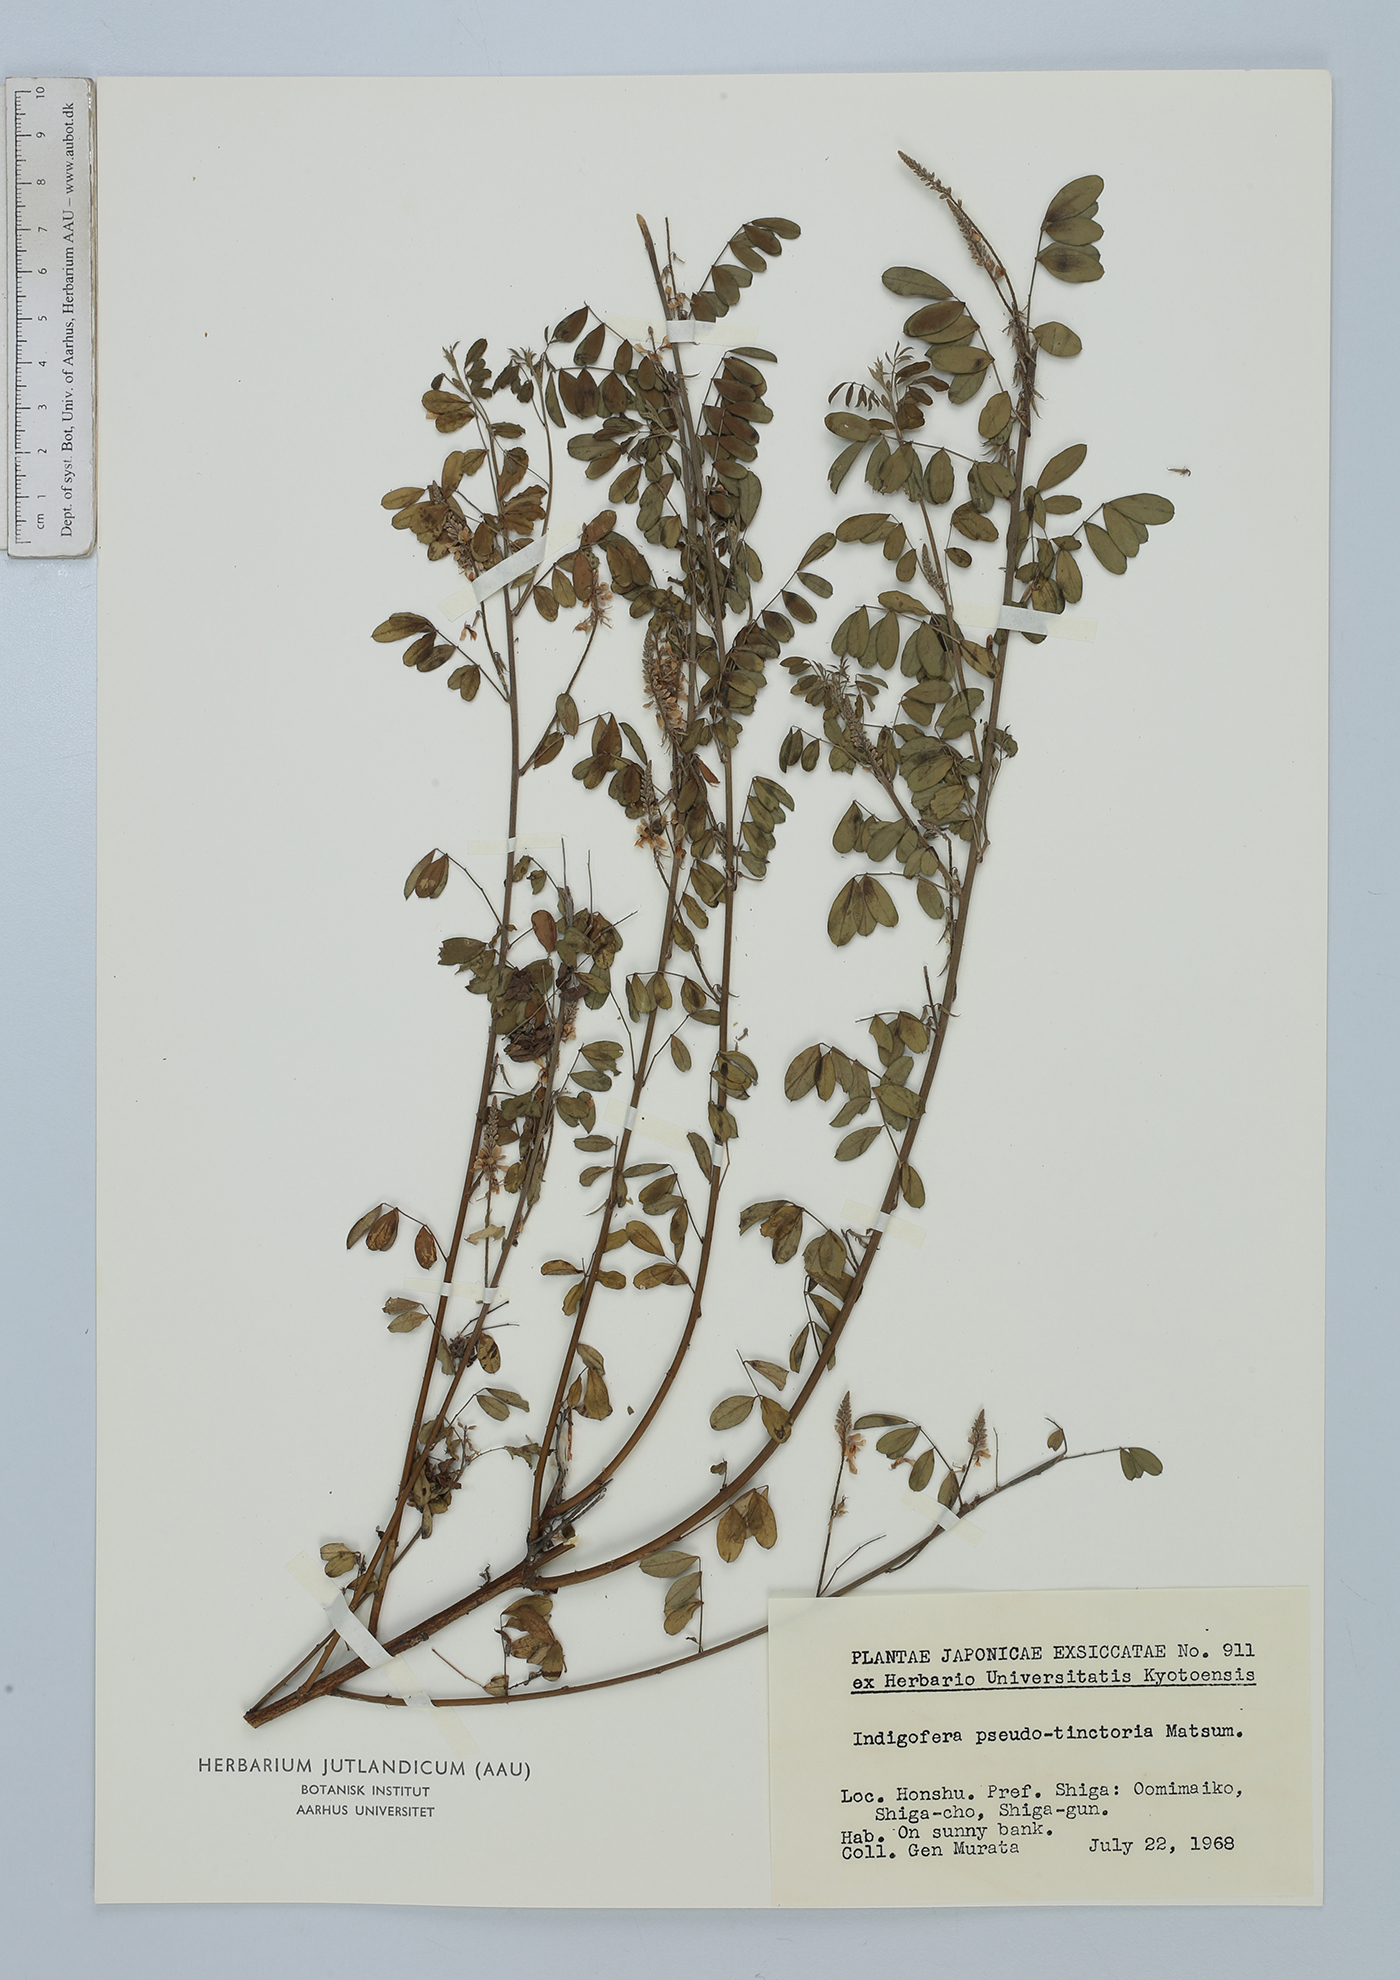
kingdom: Plantae
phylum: Tracheophyta
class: Magnoliopsida
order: Fabales
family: Fabaceae
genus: Indigofera
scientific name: Indigofera bungeana
